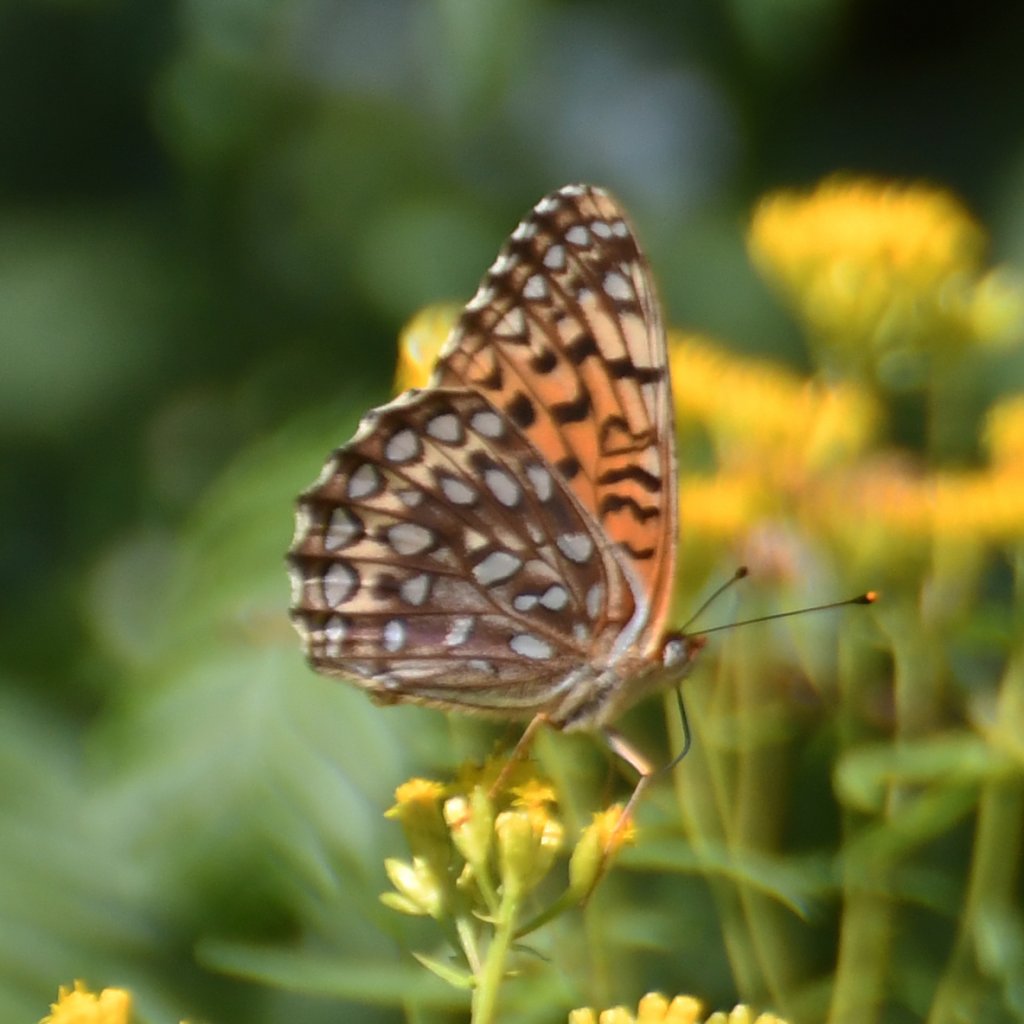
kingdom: Animalia
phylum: Arthropoda
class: Insecta
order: Lepidoptera
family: Nymphalidae
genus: Speyeria
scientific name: Speyeria atlantis
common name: Atlantis Fritillary
